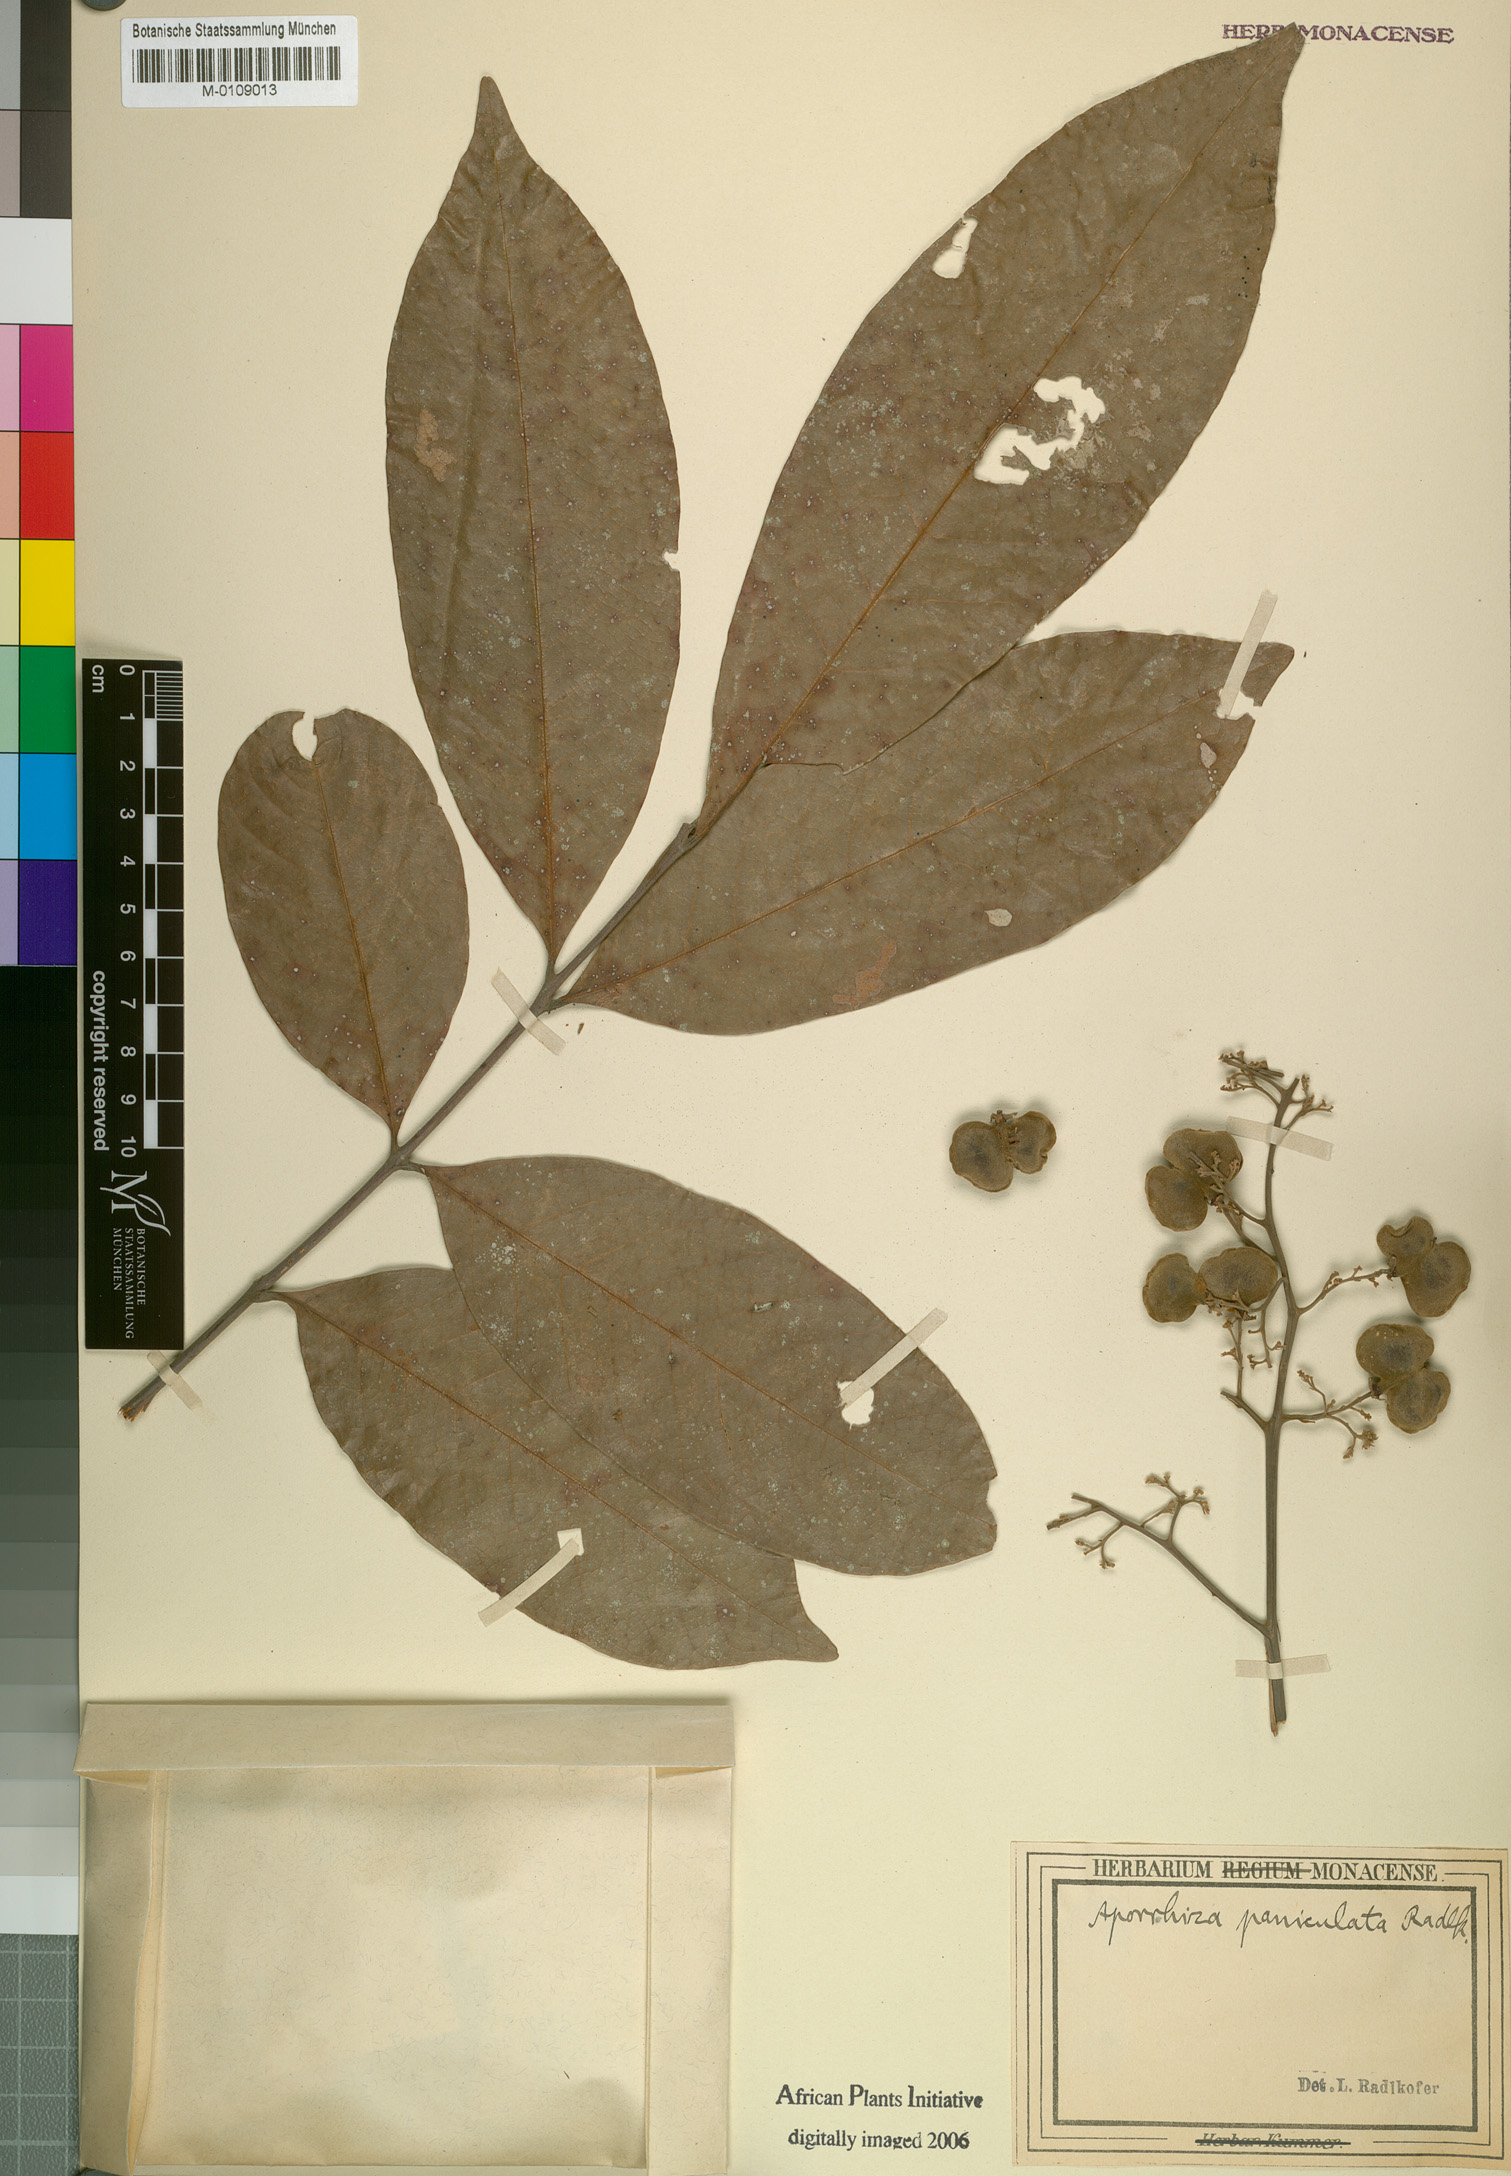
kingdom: Plantae
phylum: Tracheophyta
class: Magnoliopsida
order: Sapindales
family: Sapindaceae
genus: Aporrhiza
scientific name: Aporrhiza paniculata
